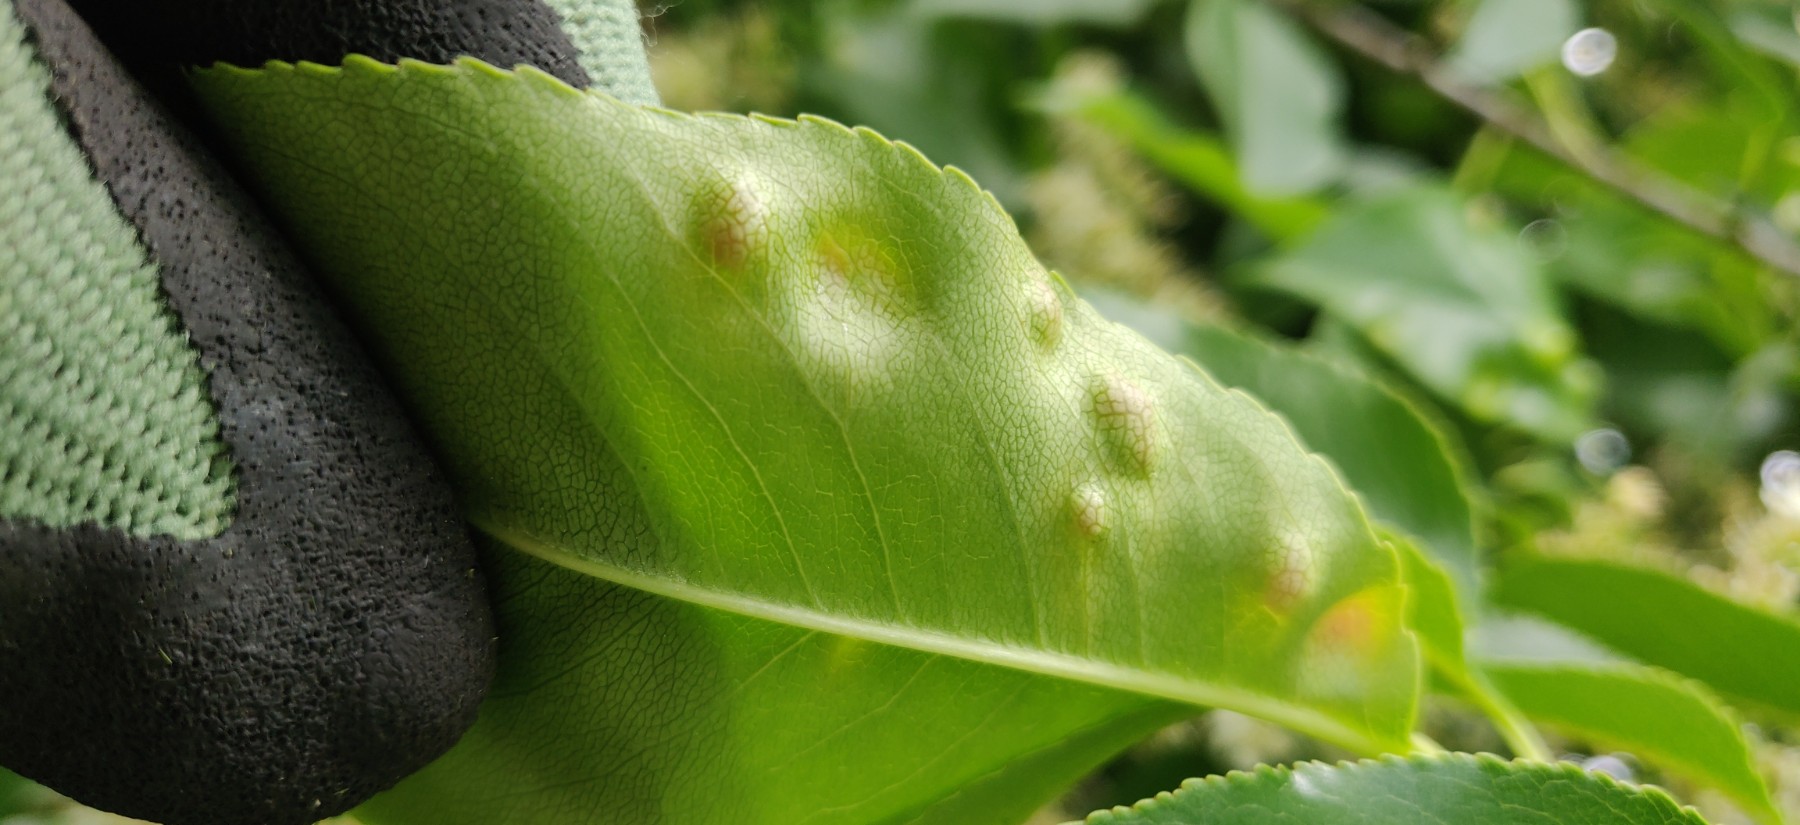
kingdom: Fungi
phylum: Ascomycota
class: Taphrinomycetes
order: Taphrinales
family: Taphrinaceae
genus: Taphrina
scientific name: Taphrina farlowii
